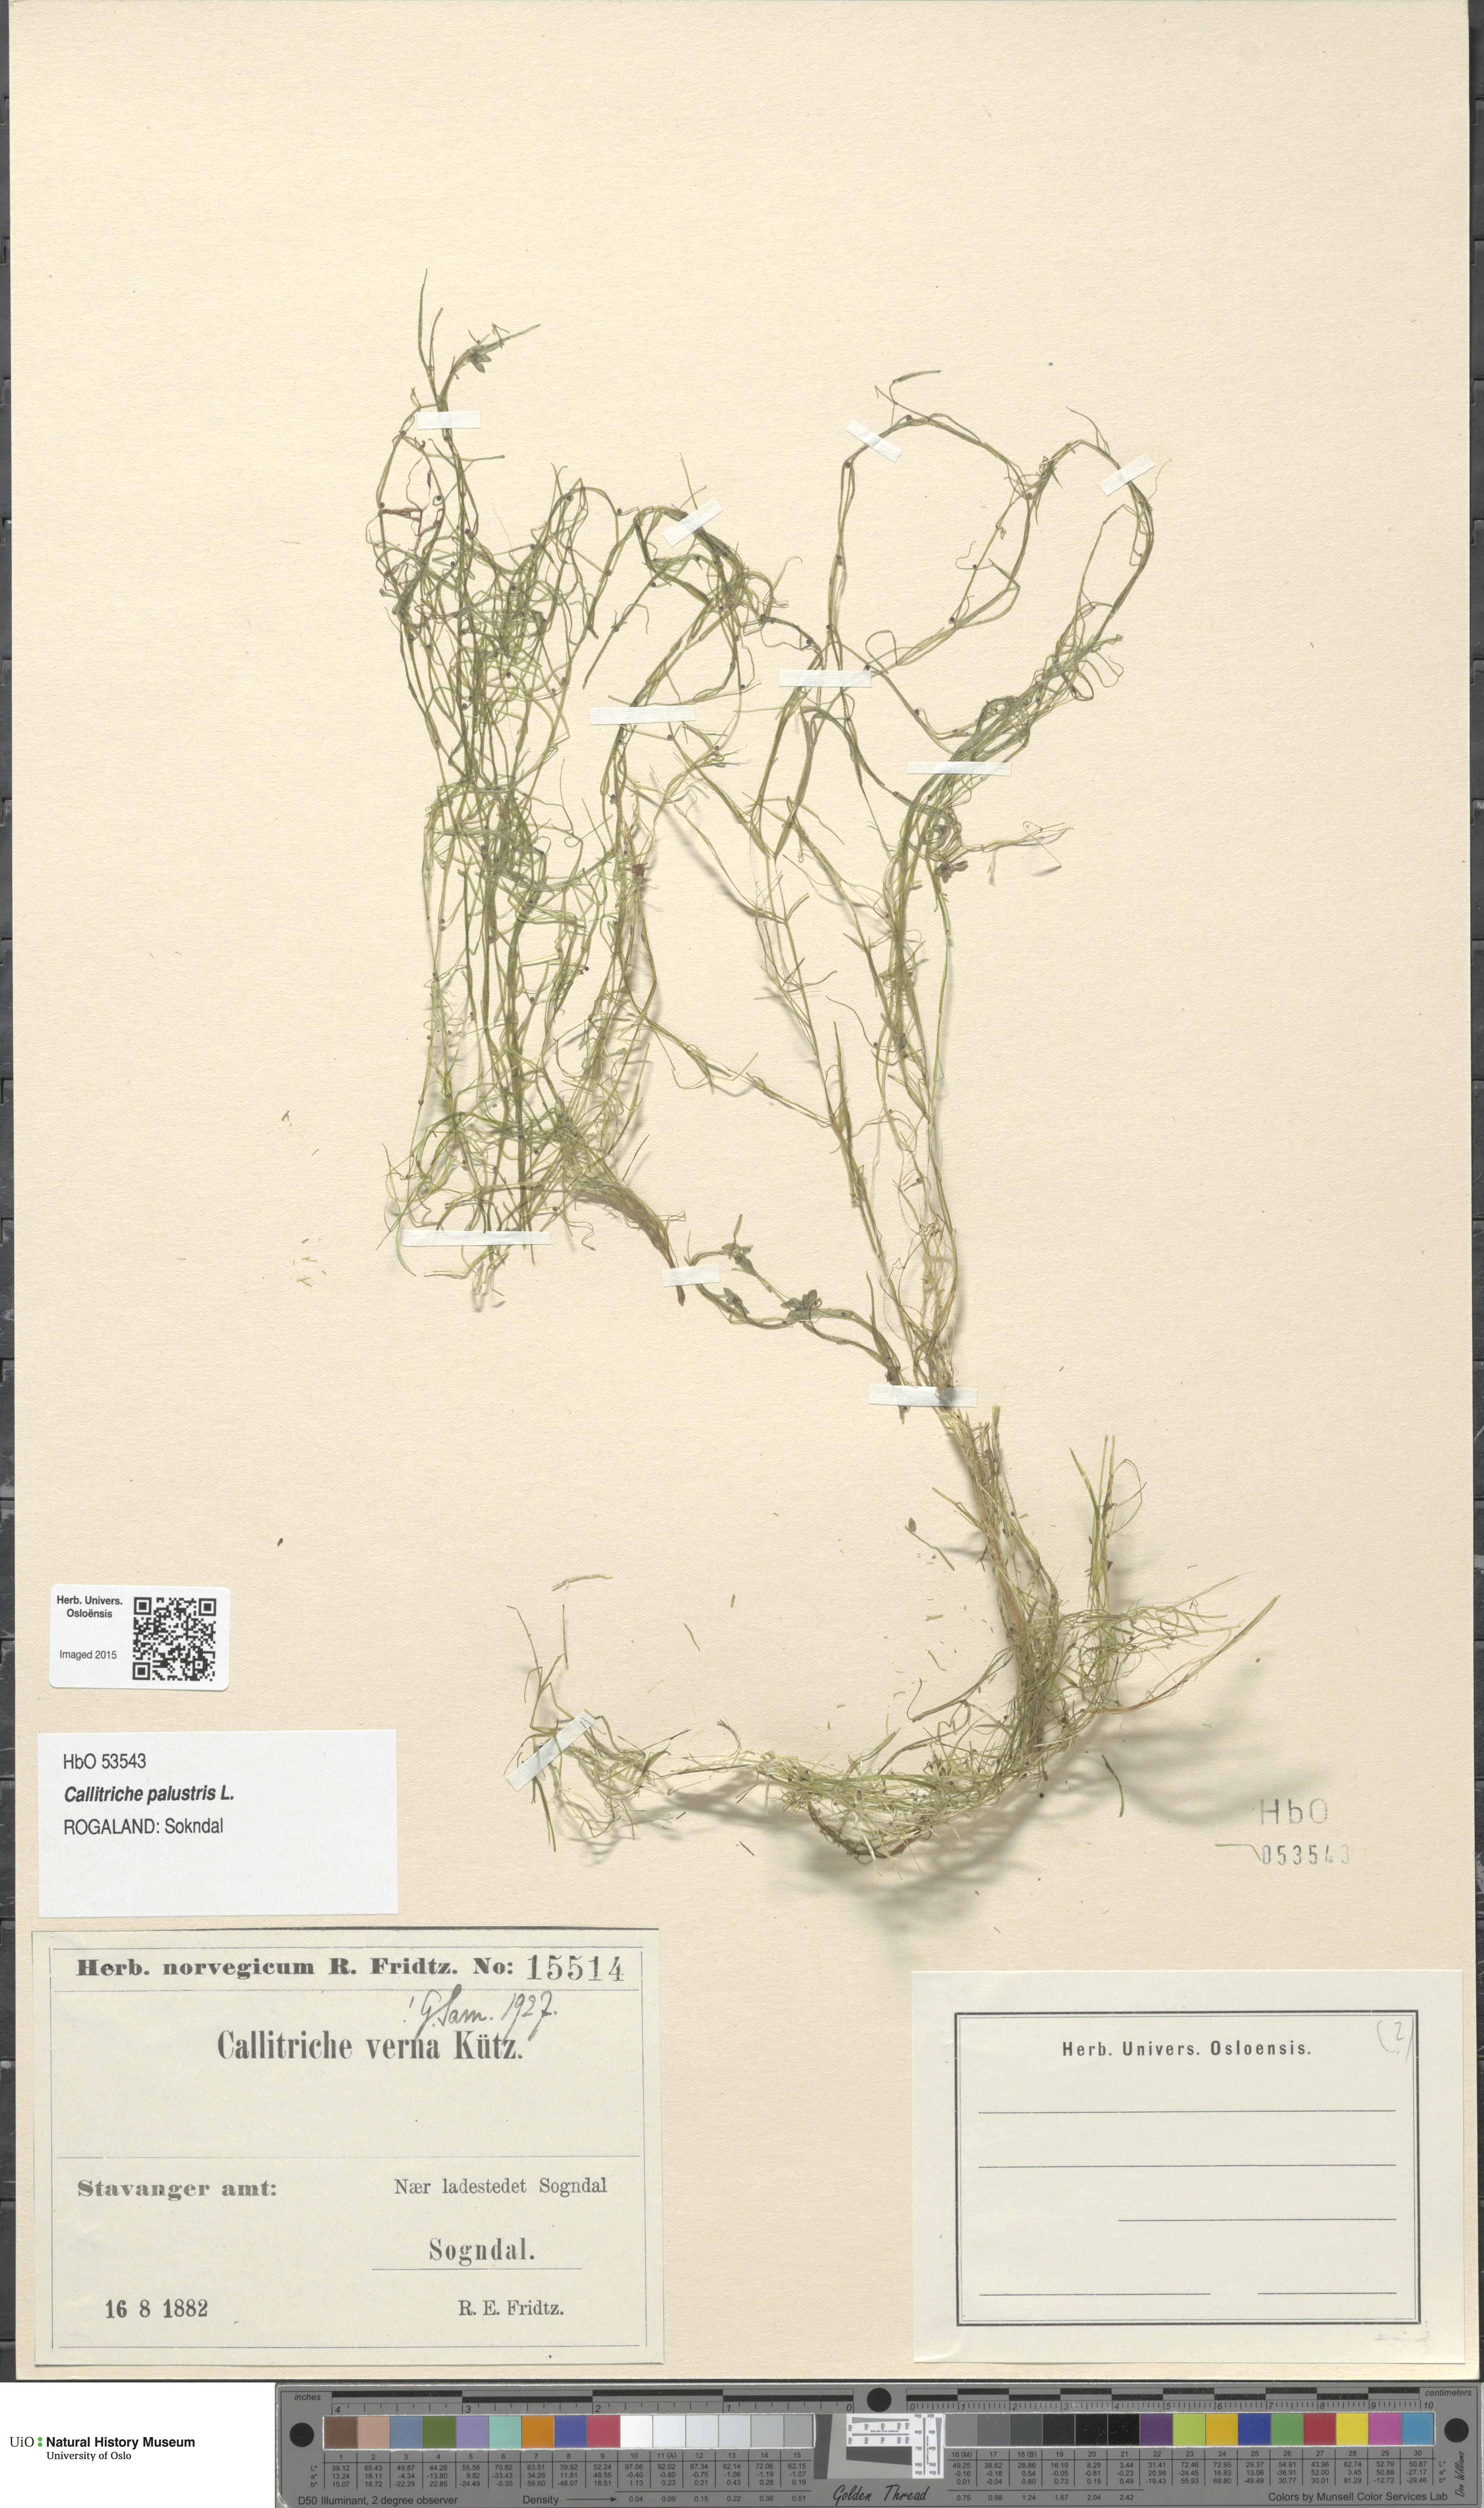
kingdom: Plantae
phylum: Tracheophyta
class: Magnoliopsida
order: Lamiales
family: Plantaginaceae
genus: Callitriche
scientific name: Callitriche palustris
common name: Spring water-starwort
